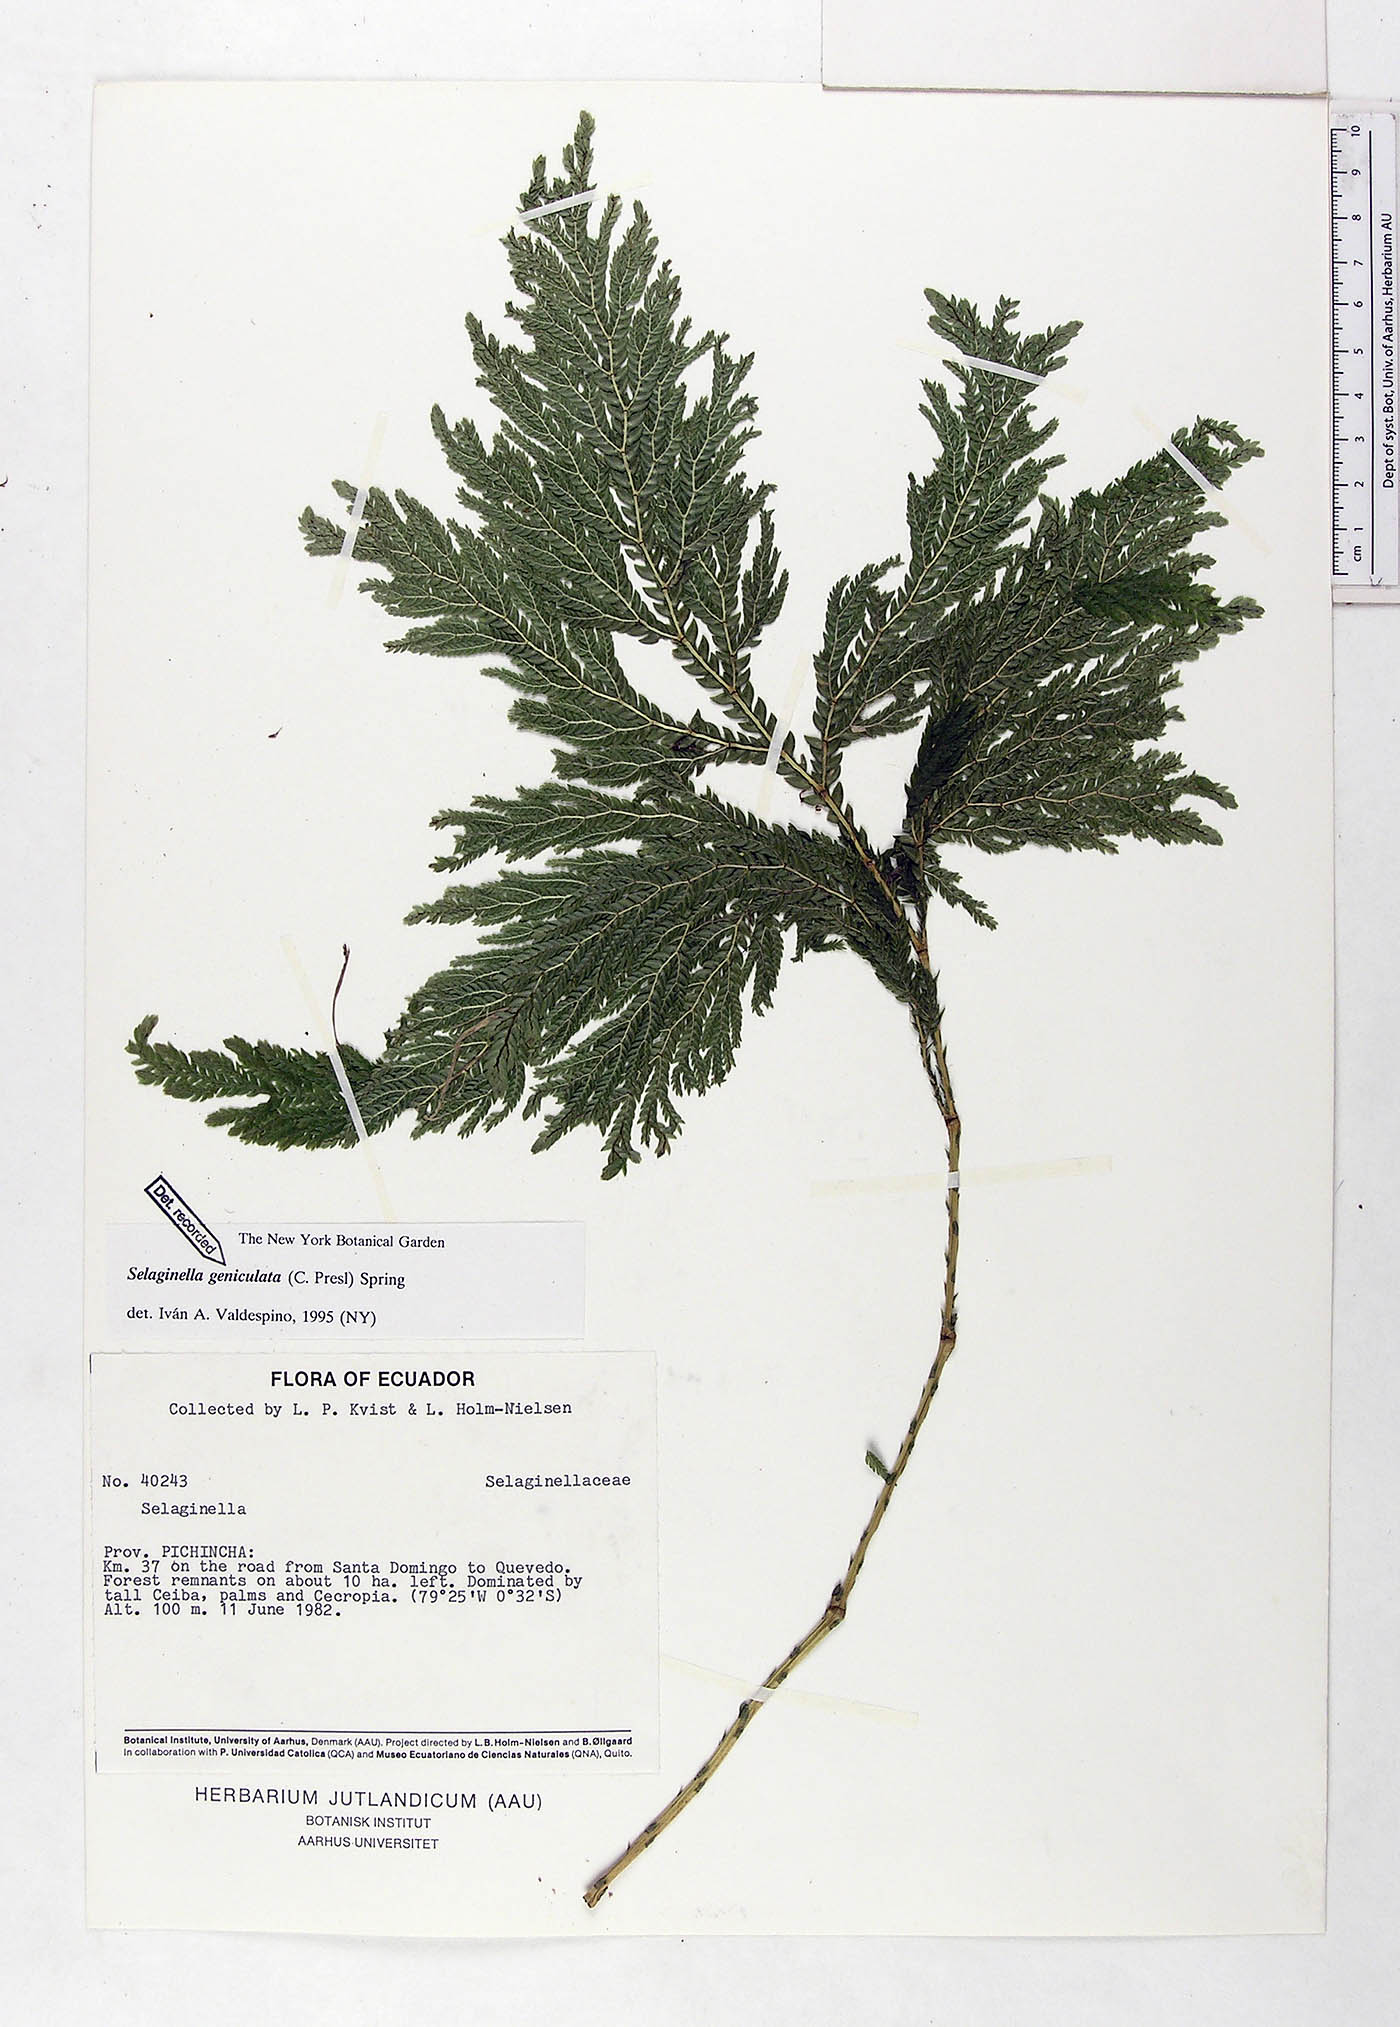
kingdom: Plantae
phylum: Tracheophyta
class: Lycopodiopsida
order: Selaginellales
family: Selaginellaceae
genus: Selaginella
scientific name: Selaginella geniculata
